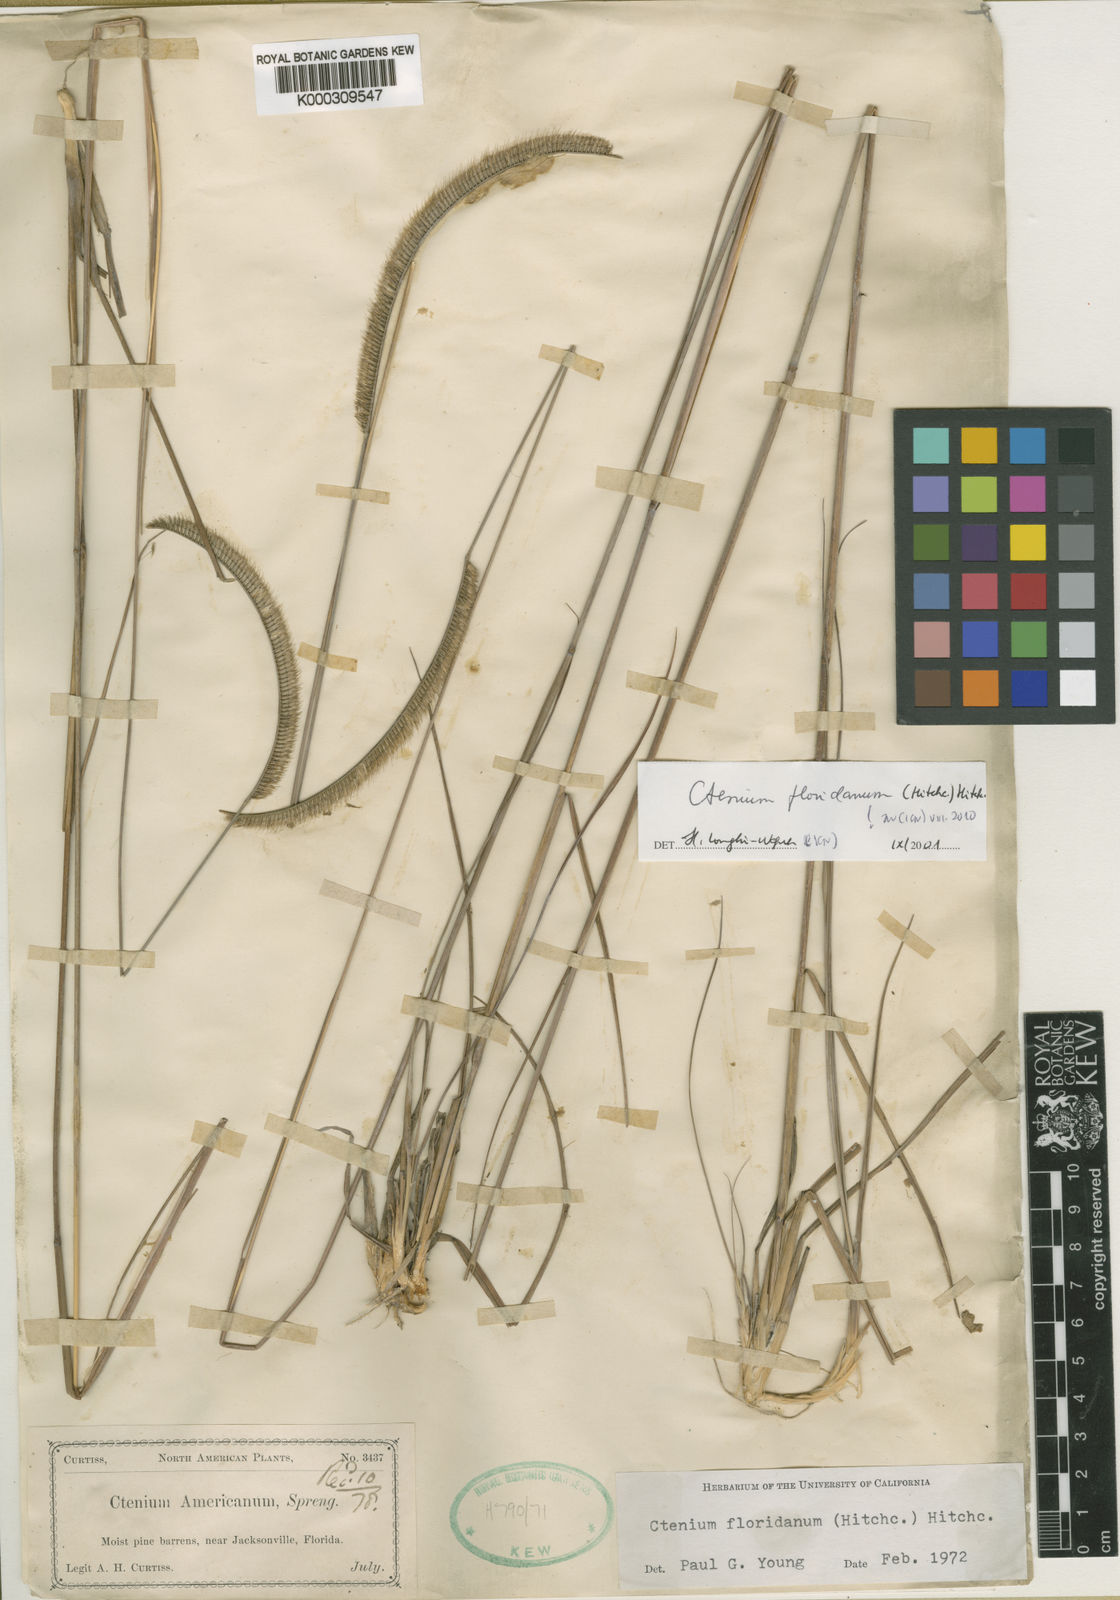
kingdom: Plantae
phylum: Tracheophyta
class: Liliopsida
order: Poales
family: Poaceae
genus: Ctenium
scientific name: Ctenium floridanum
